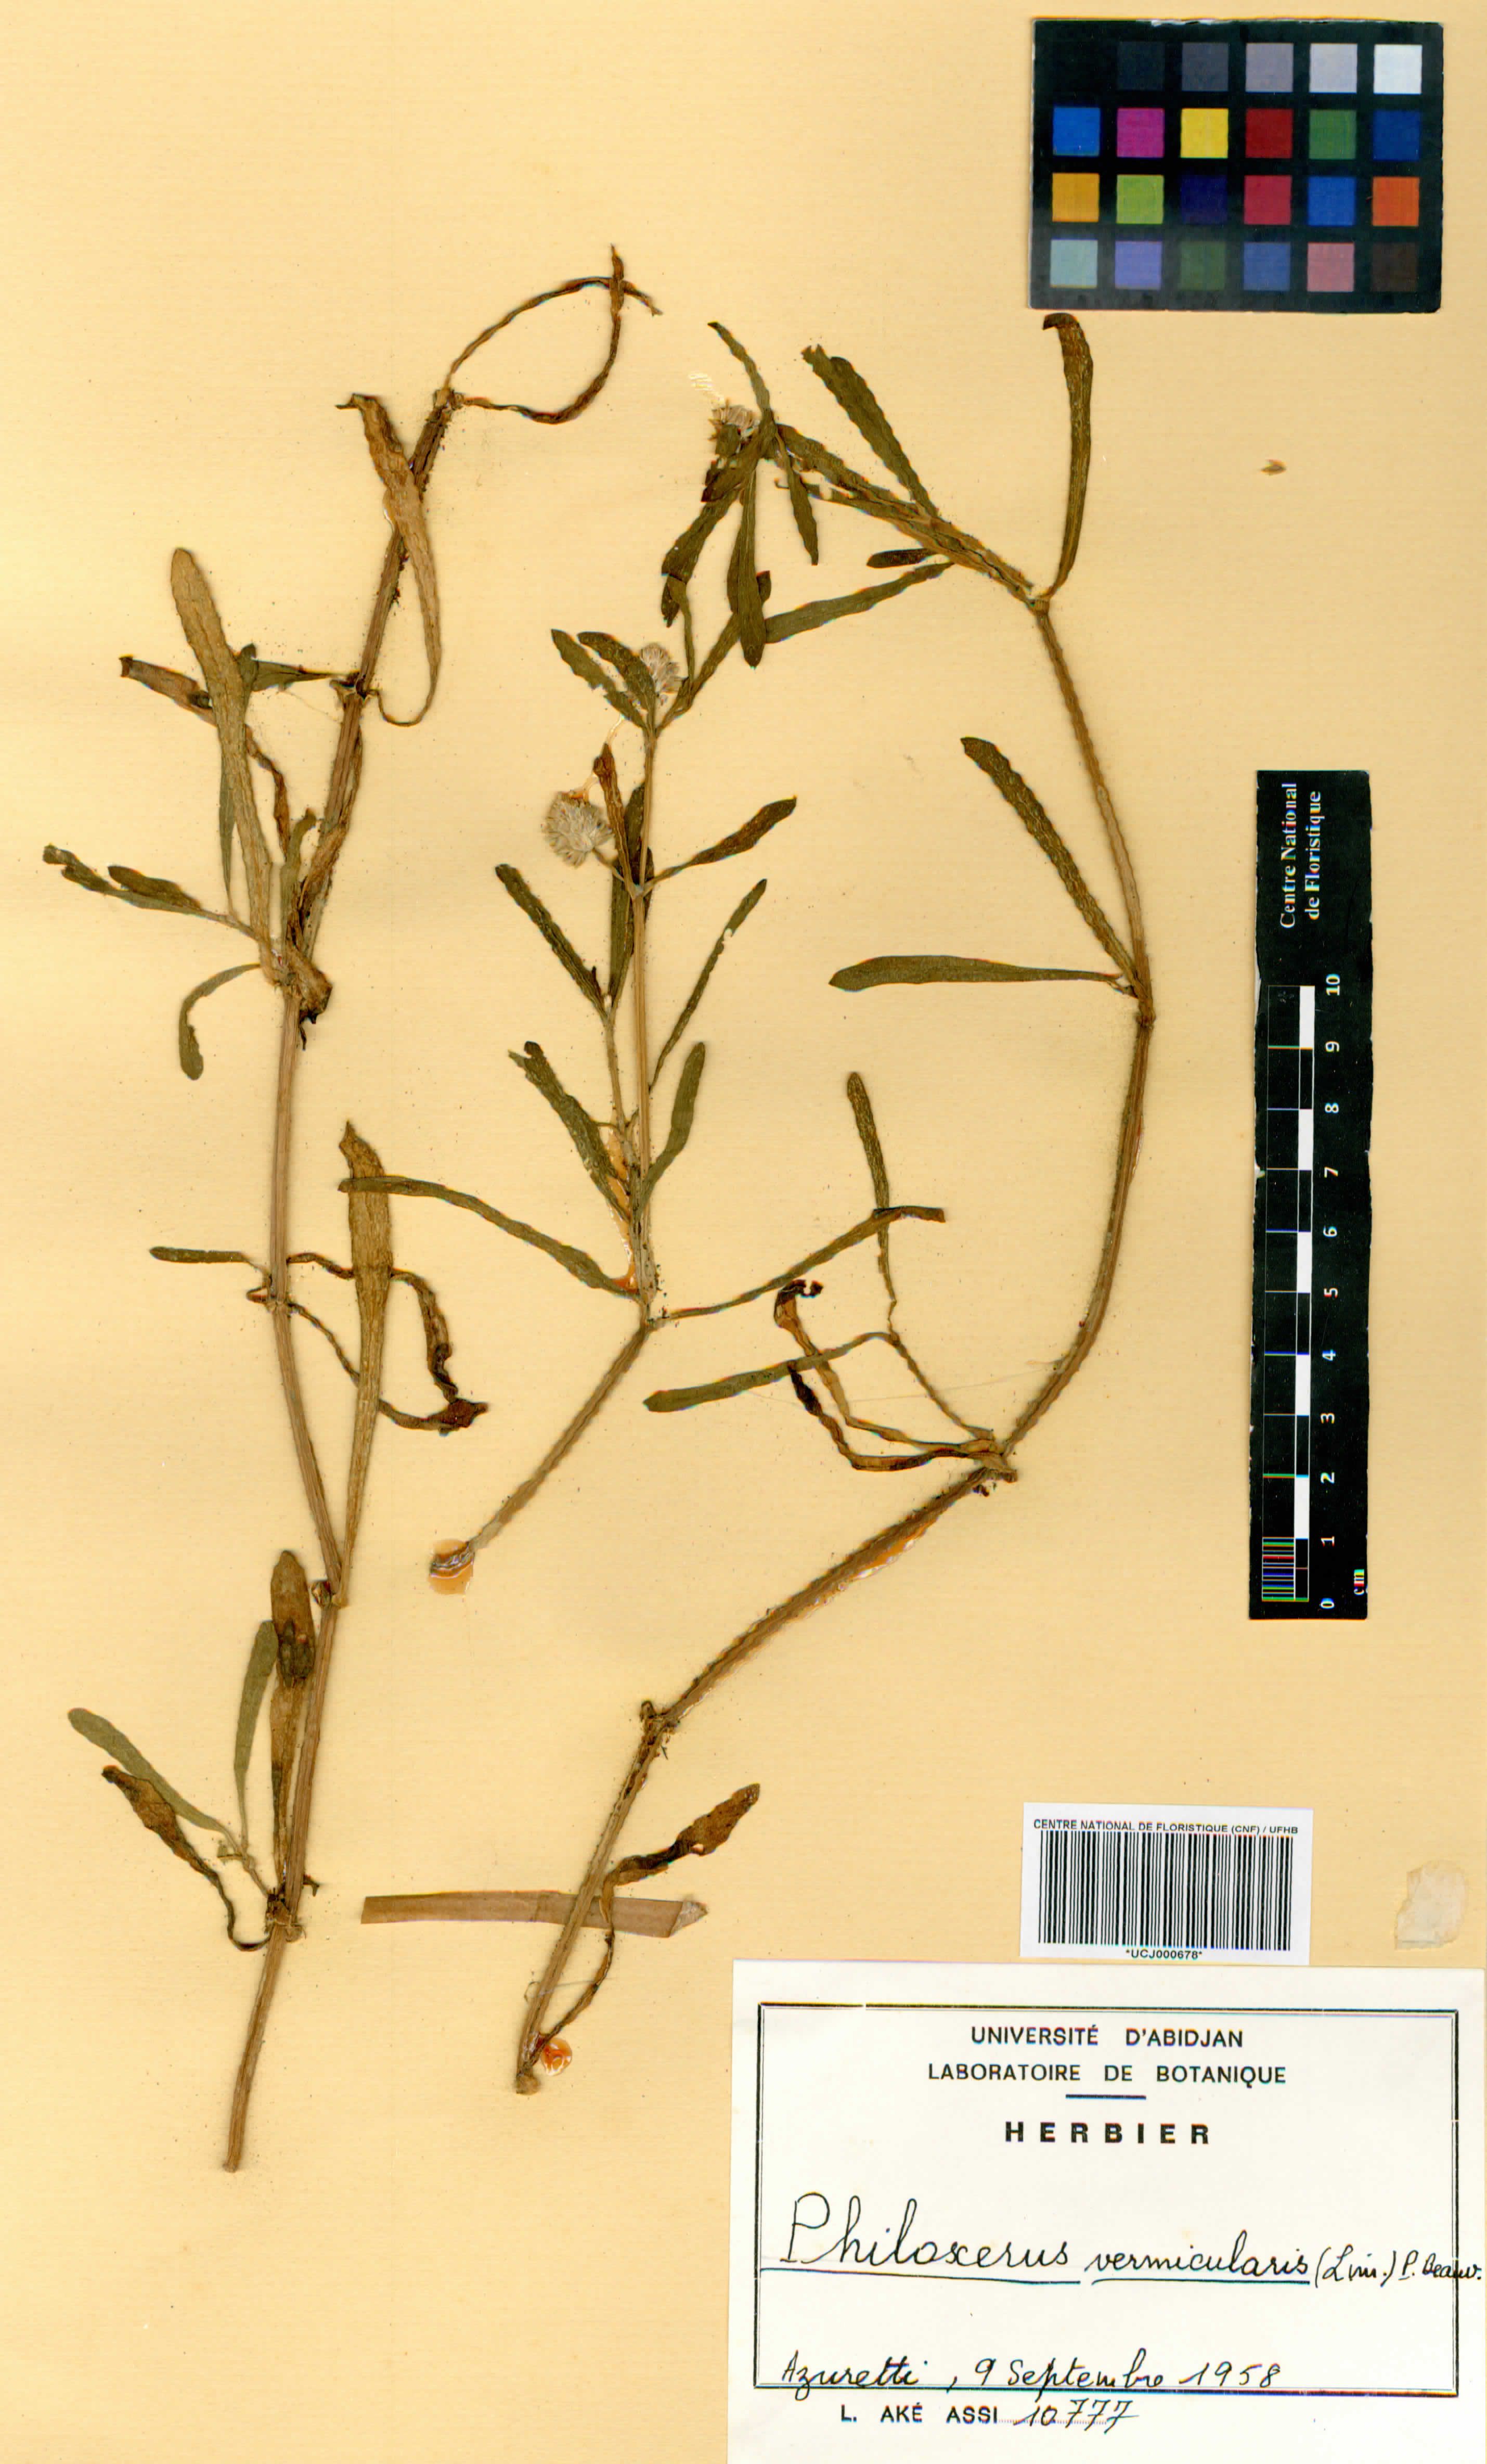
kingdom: Plantae
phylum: Tracheophyta
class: Magnoliopsida
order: Caryophyllales
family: Amaranthaceae
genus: Gomphrena
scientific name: Gomphrena vermicularis
